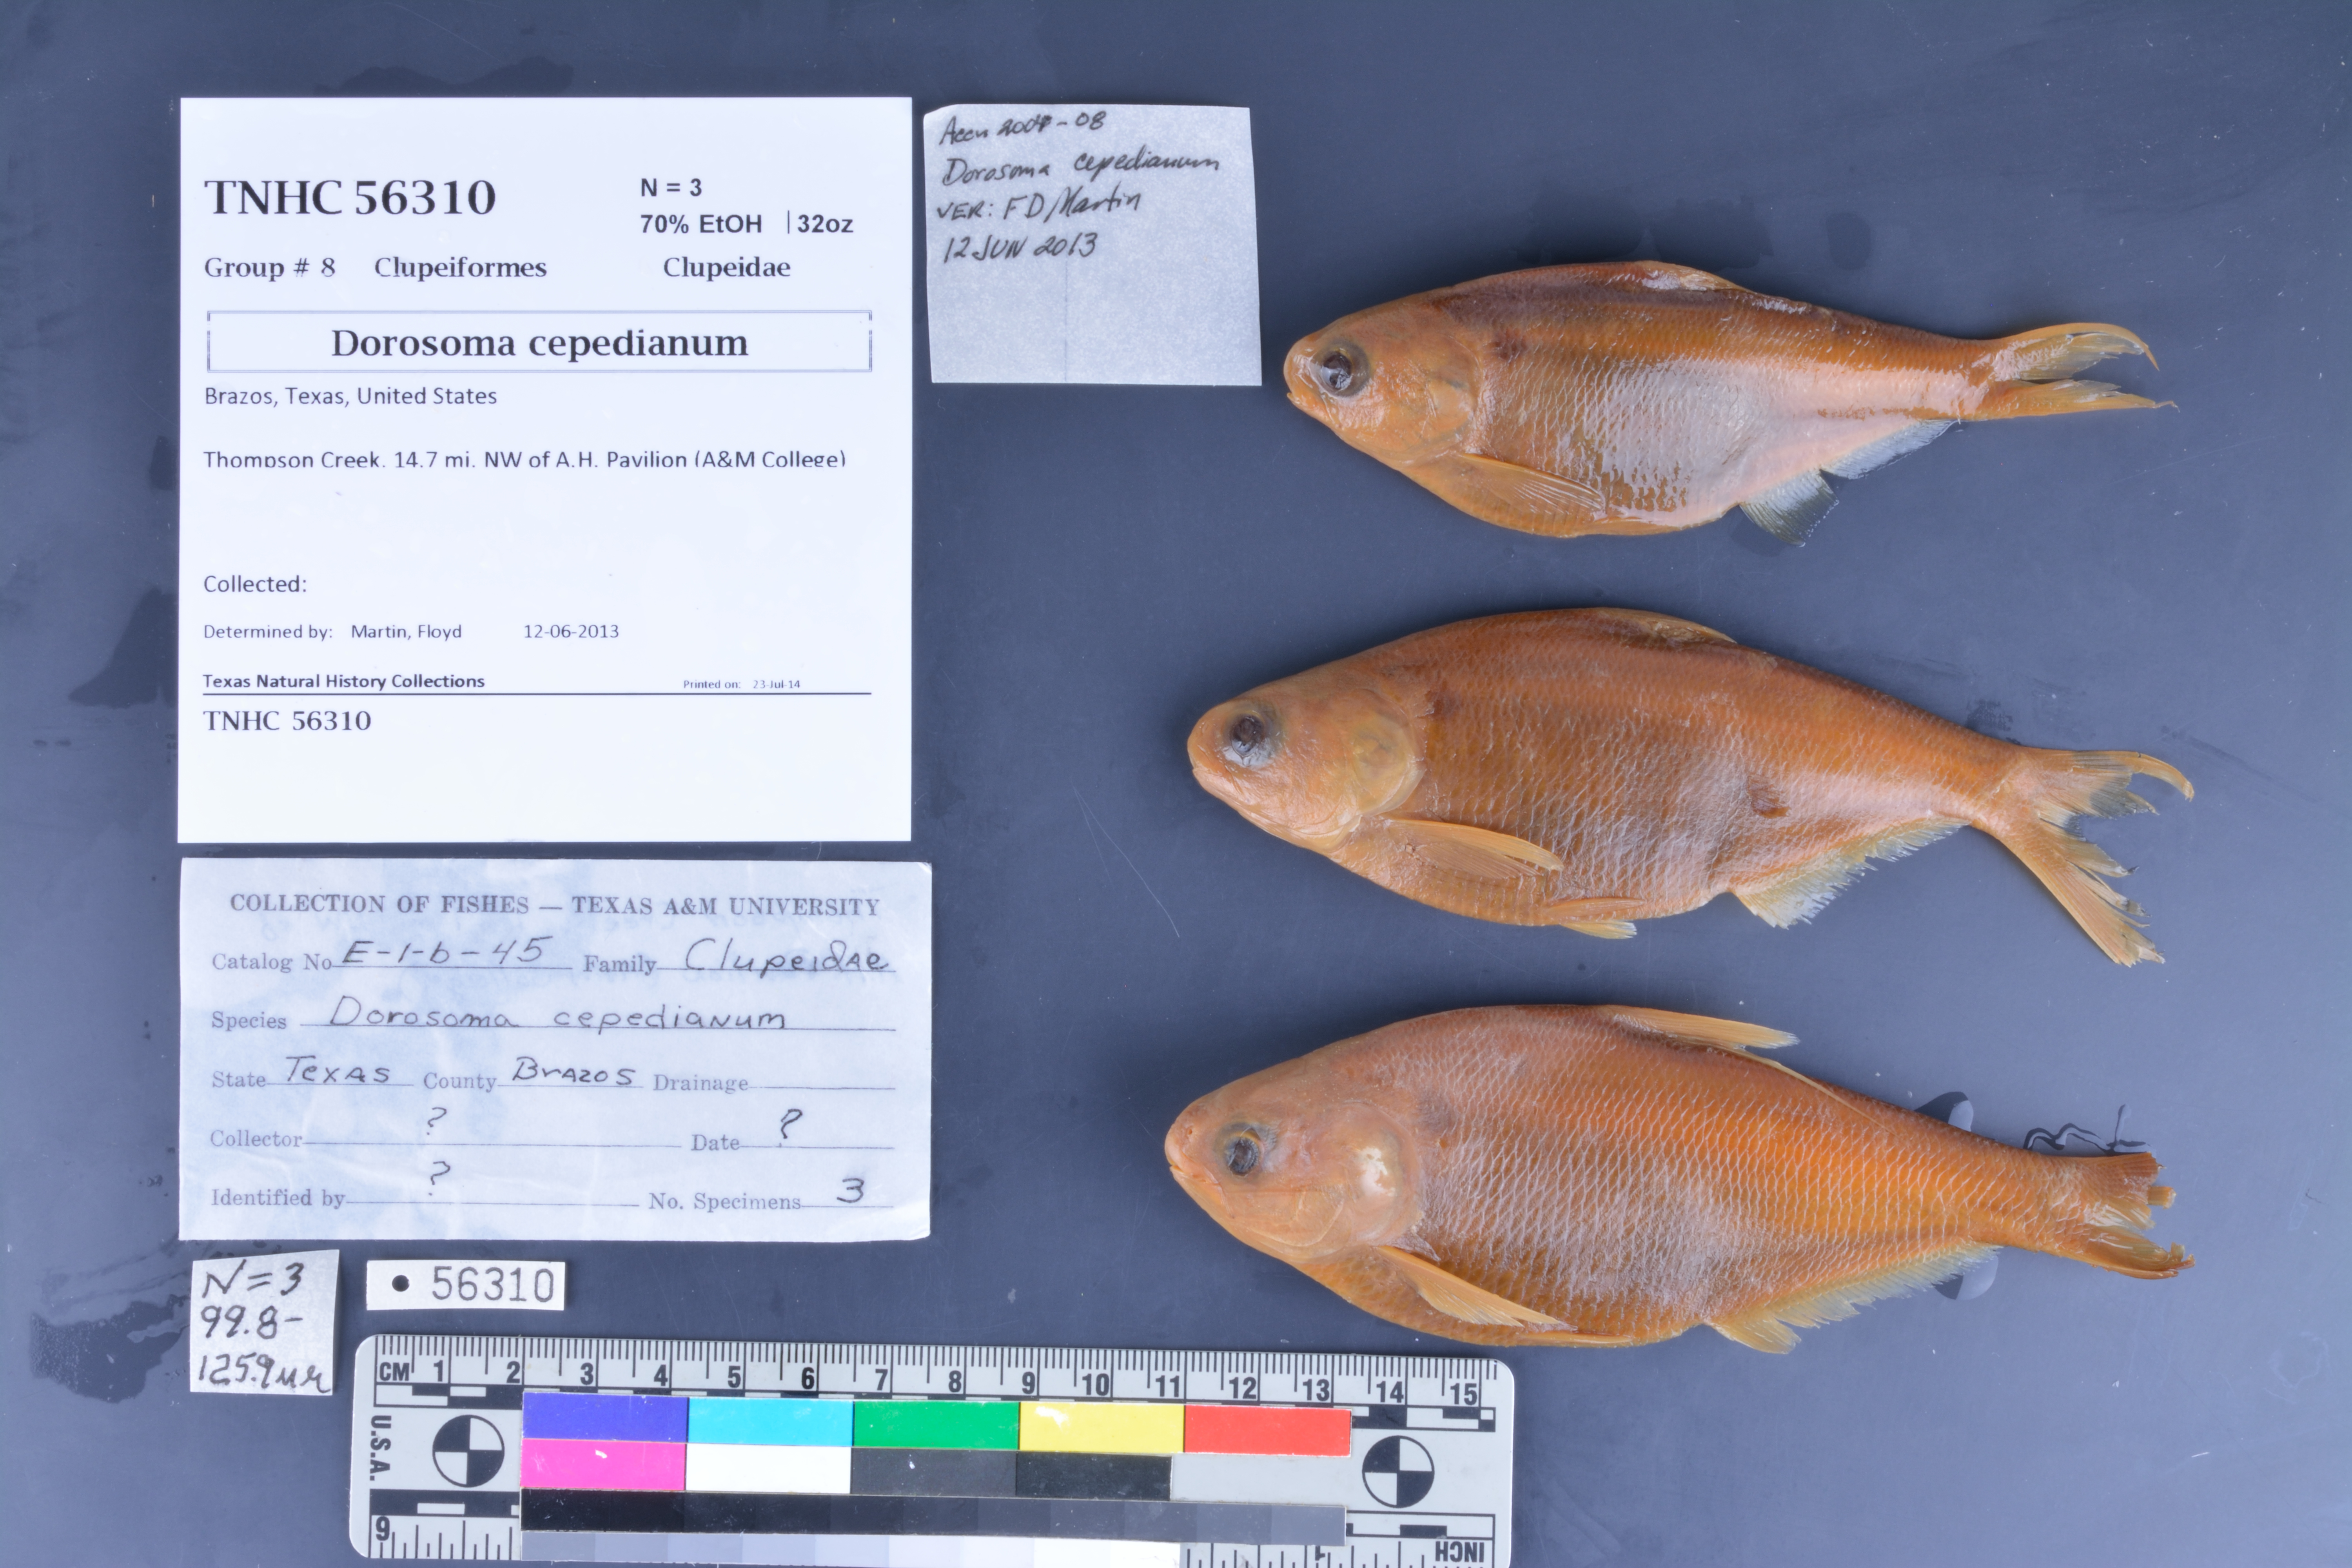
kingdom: Animalia
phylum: Chordata
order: Clupeiformes
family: Clupeidae
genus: Dorosoma
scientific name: Dorosoma cepedianum
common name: Gizzard shad
